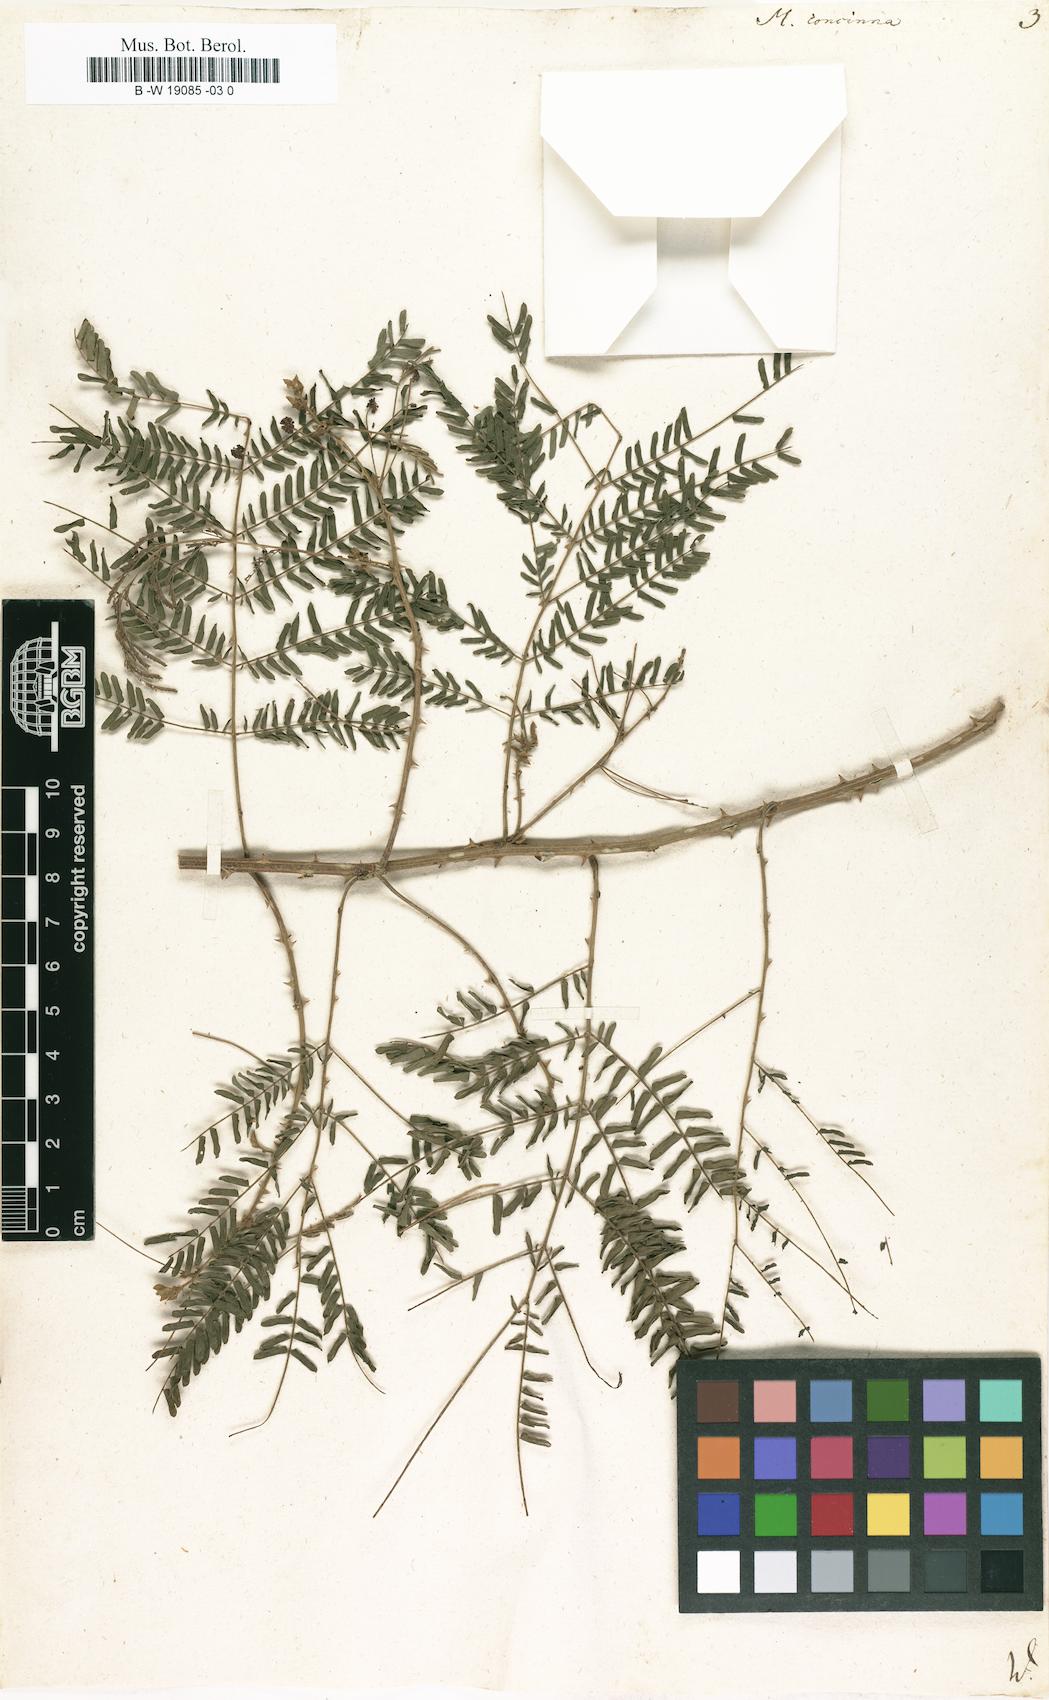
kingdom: Plantae
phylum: Tracheophyta
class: Magnoliopsida
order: Fabales
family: Fabaceae
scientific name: Fabaceae
